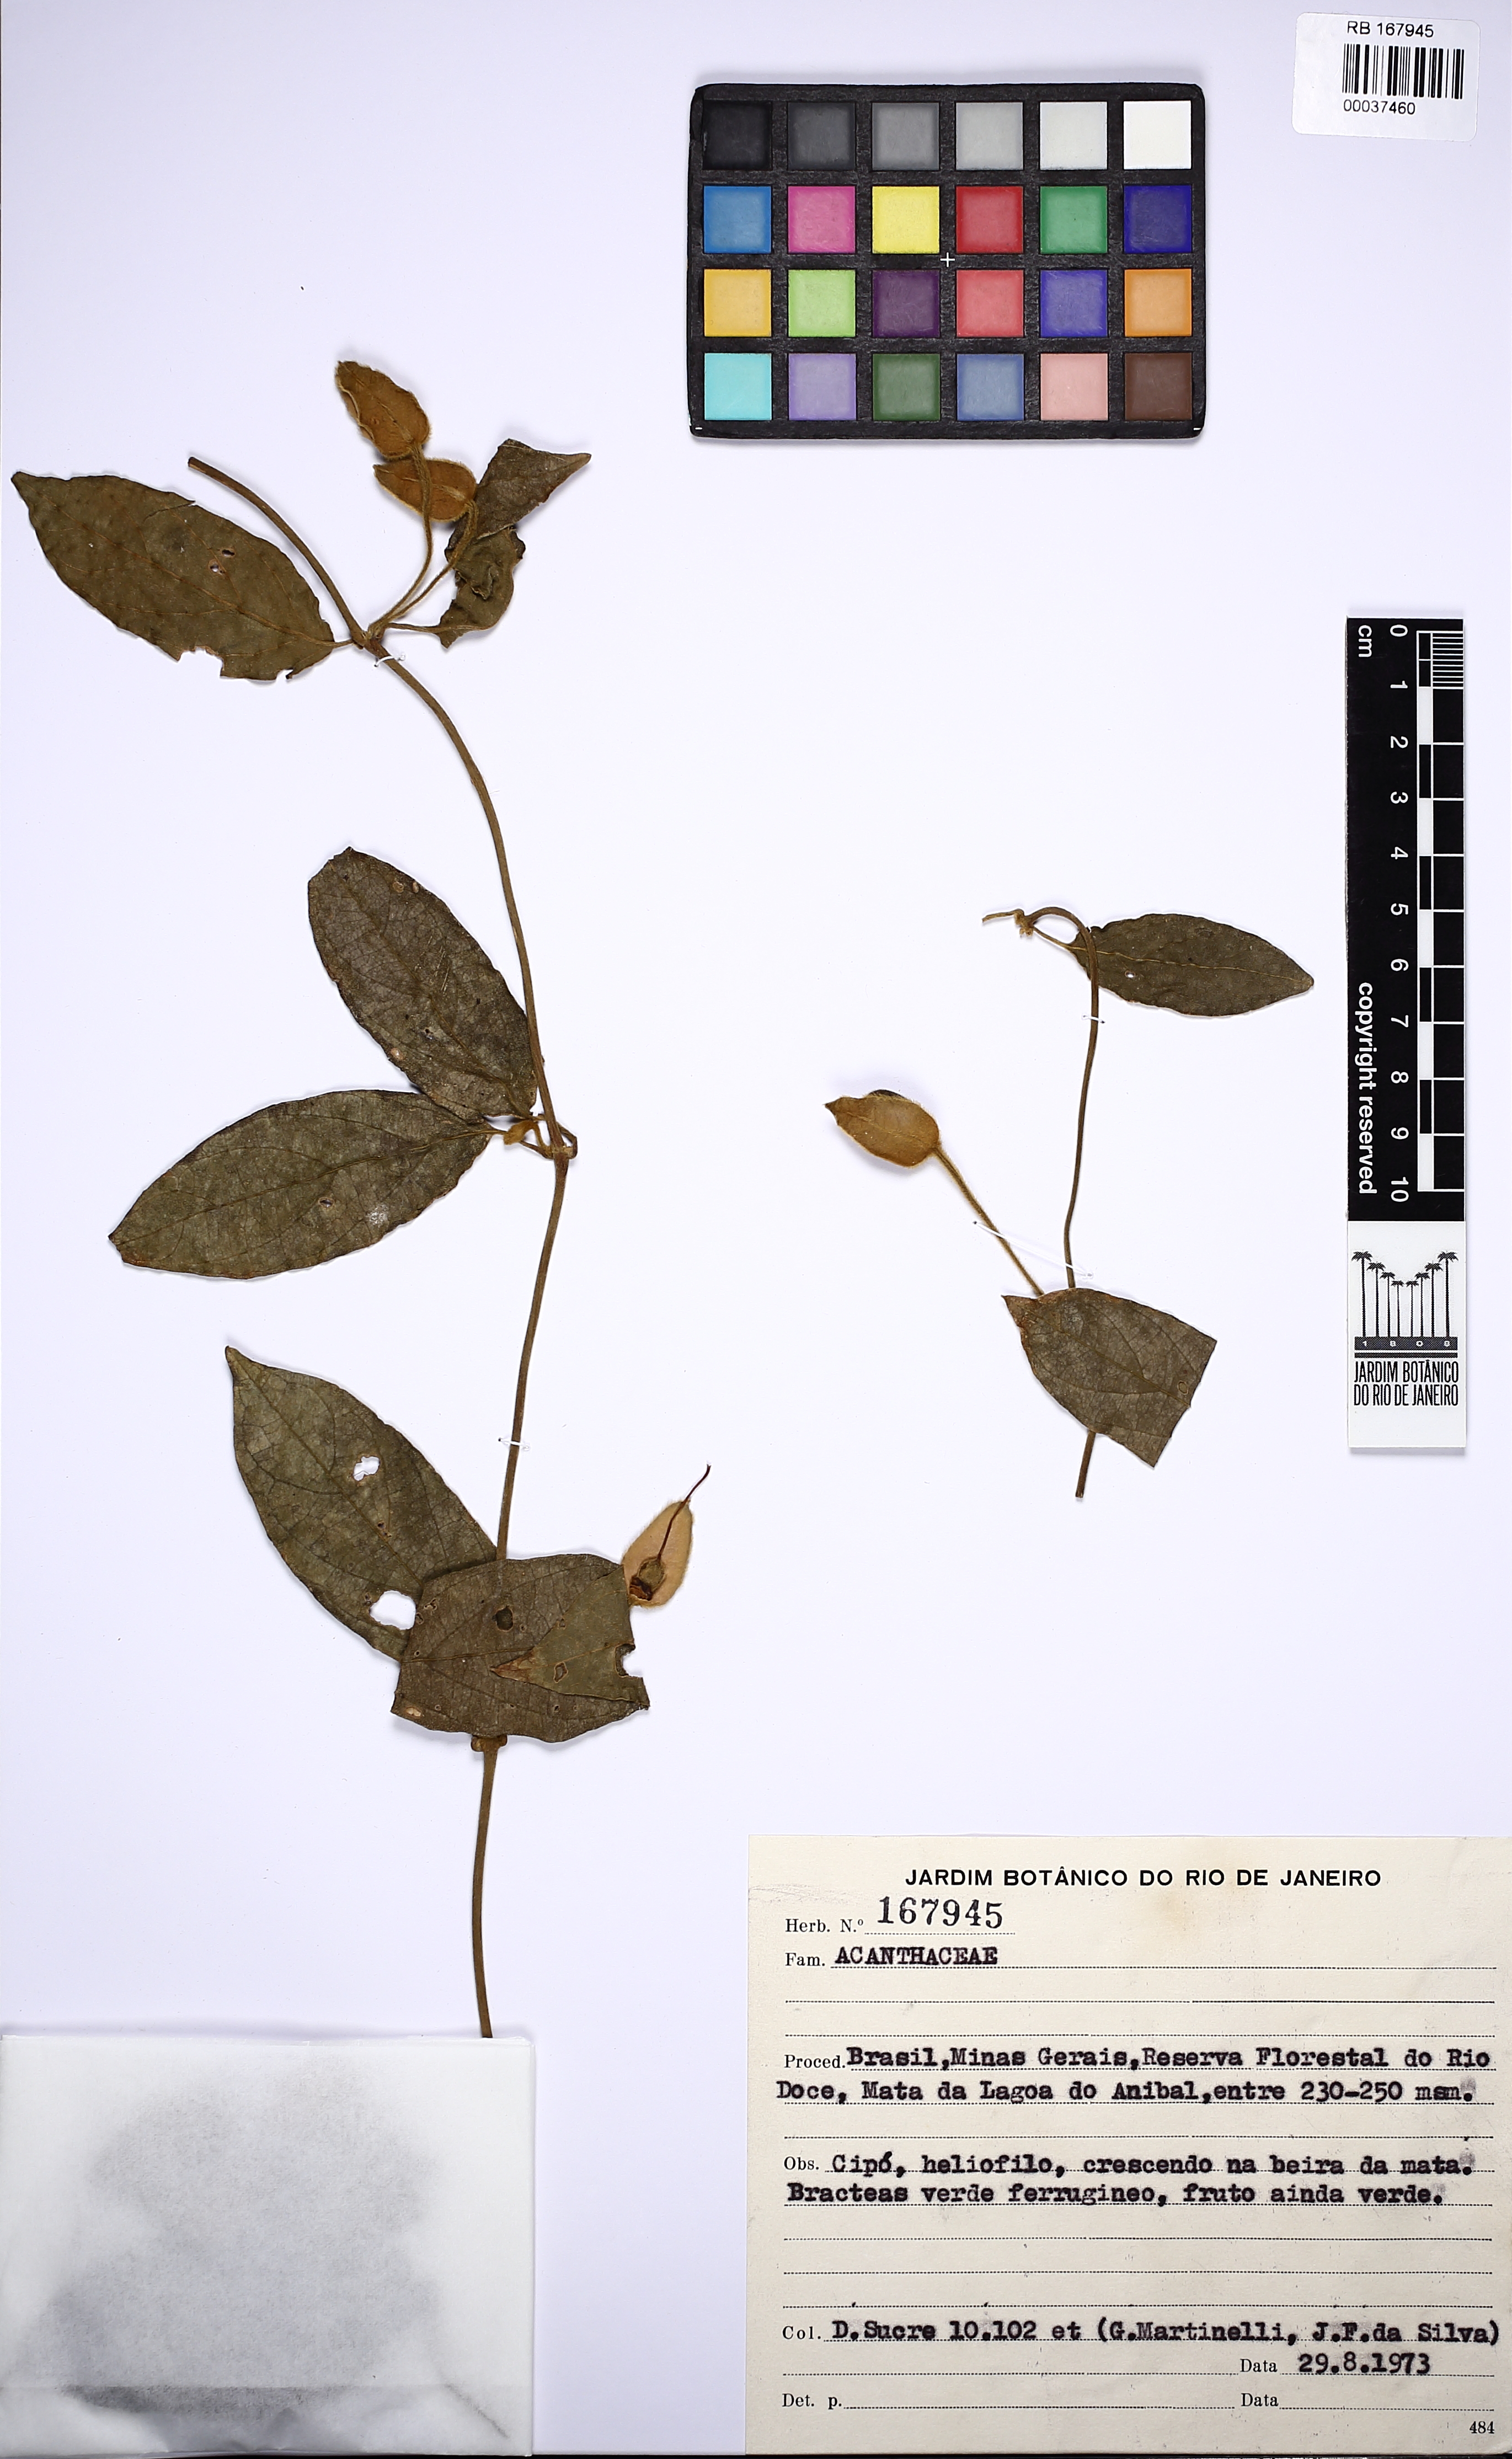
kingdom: Plantae
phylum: Tracheophyta
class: Magnoliopsida
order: Lamiales
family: Acanthaceae
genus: Mendoncia
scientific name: Mendoncia velloziana
